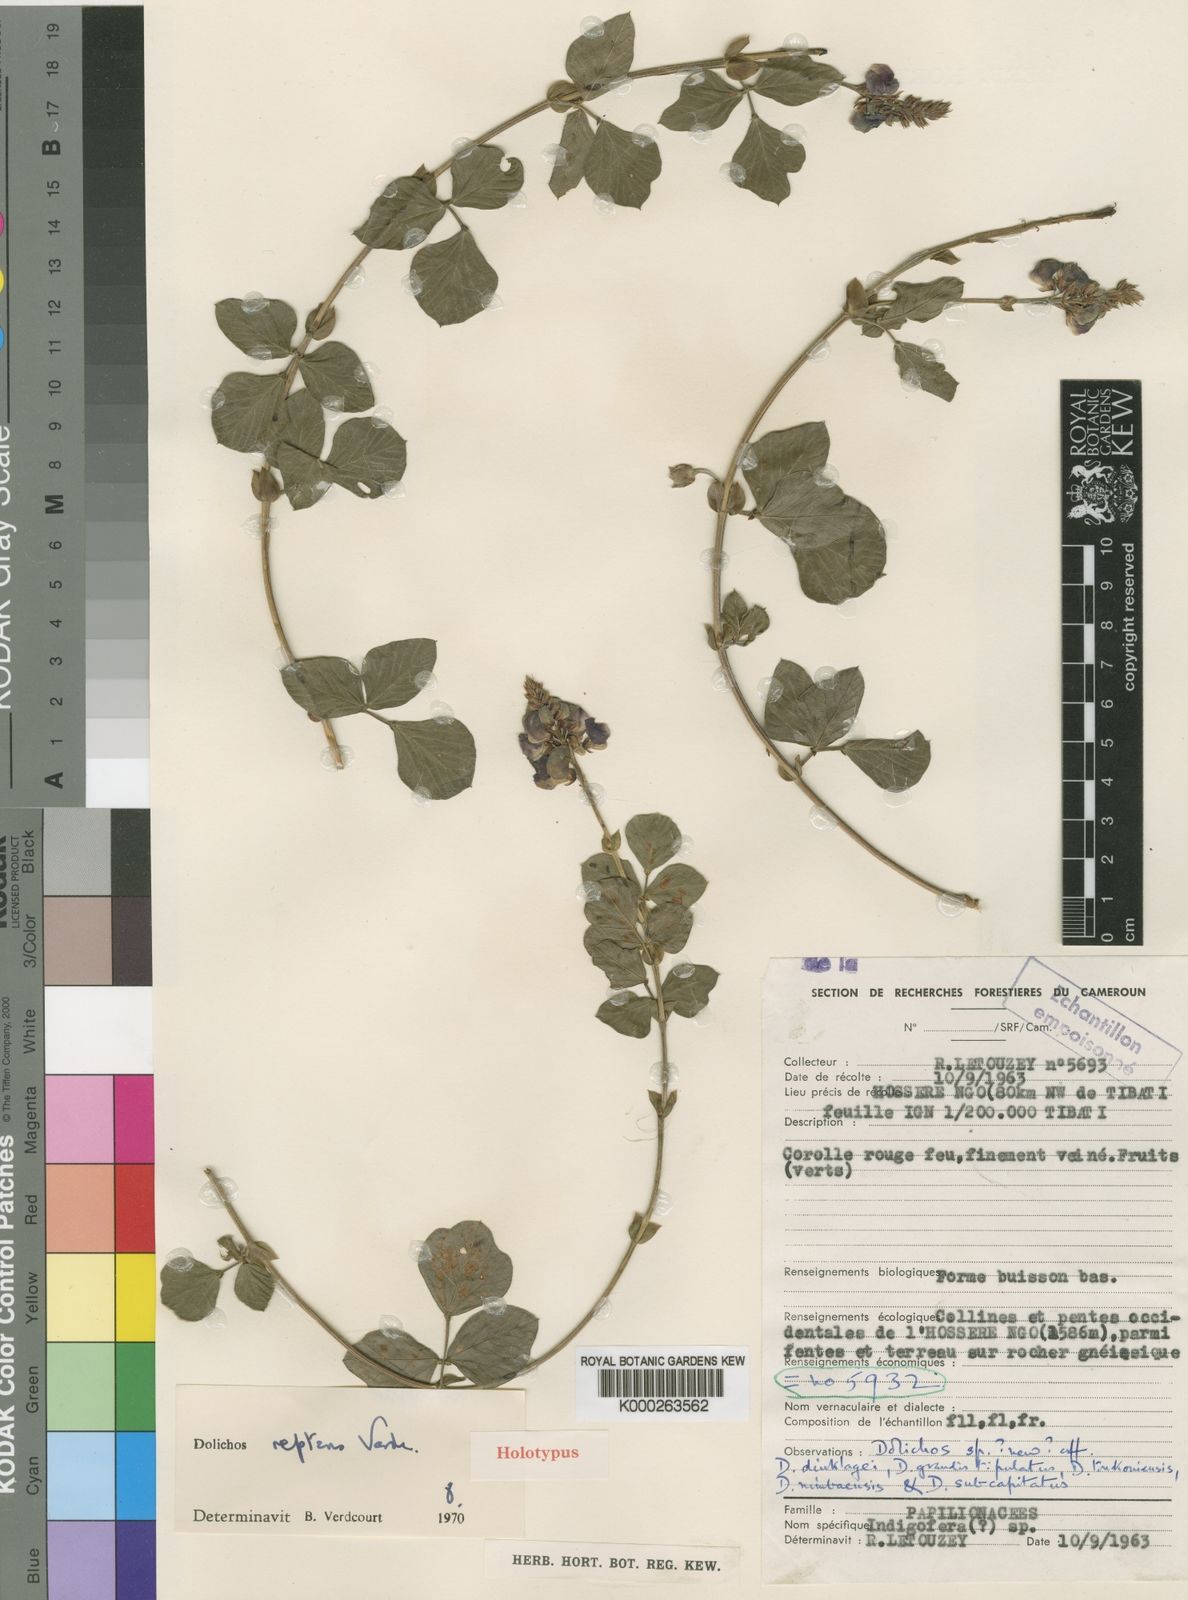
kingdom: Plantae
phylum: Tracheophyta
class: Magnoliopsida
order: Fabales
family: Fabaceae
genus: Dolichos
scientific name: Dolichos reptans
